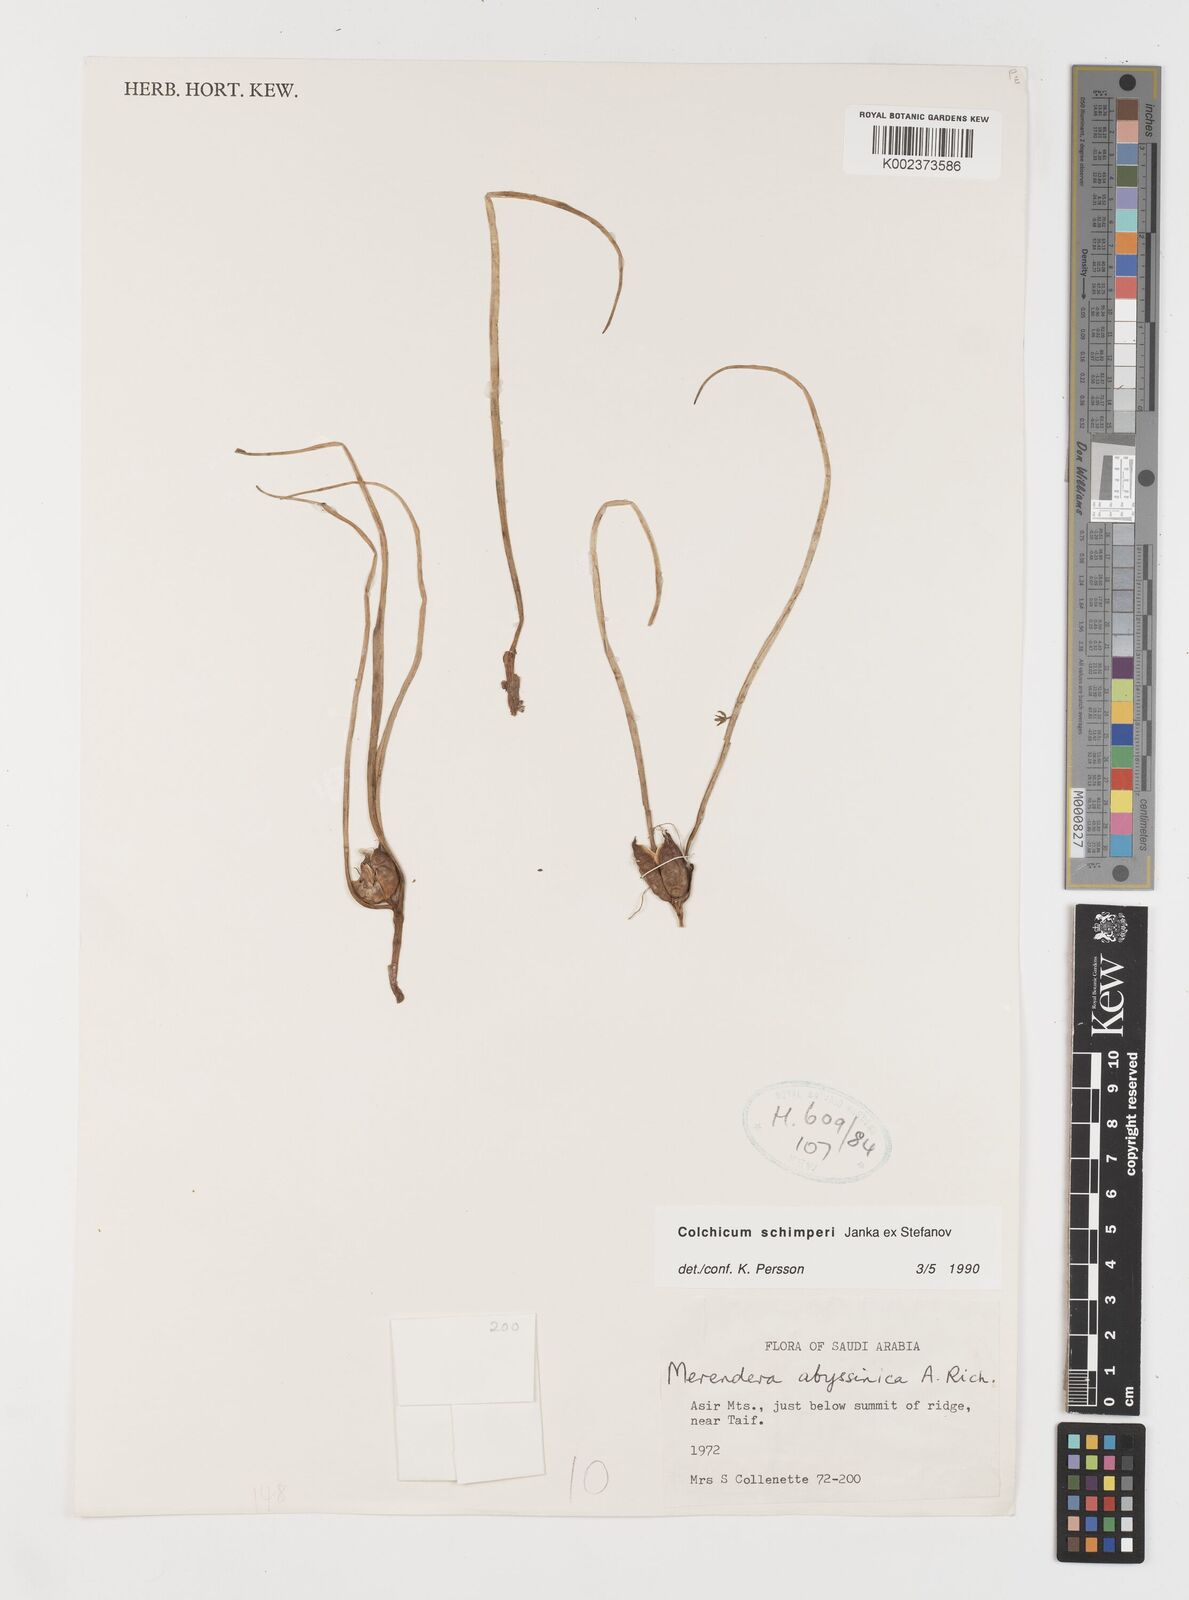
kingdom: Plantae
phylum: Tracheophyta
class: Liliopsida
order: Liliales
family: Colchicaceae
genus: Colchicum
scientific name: Colchicum schimperi
